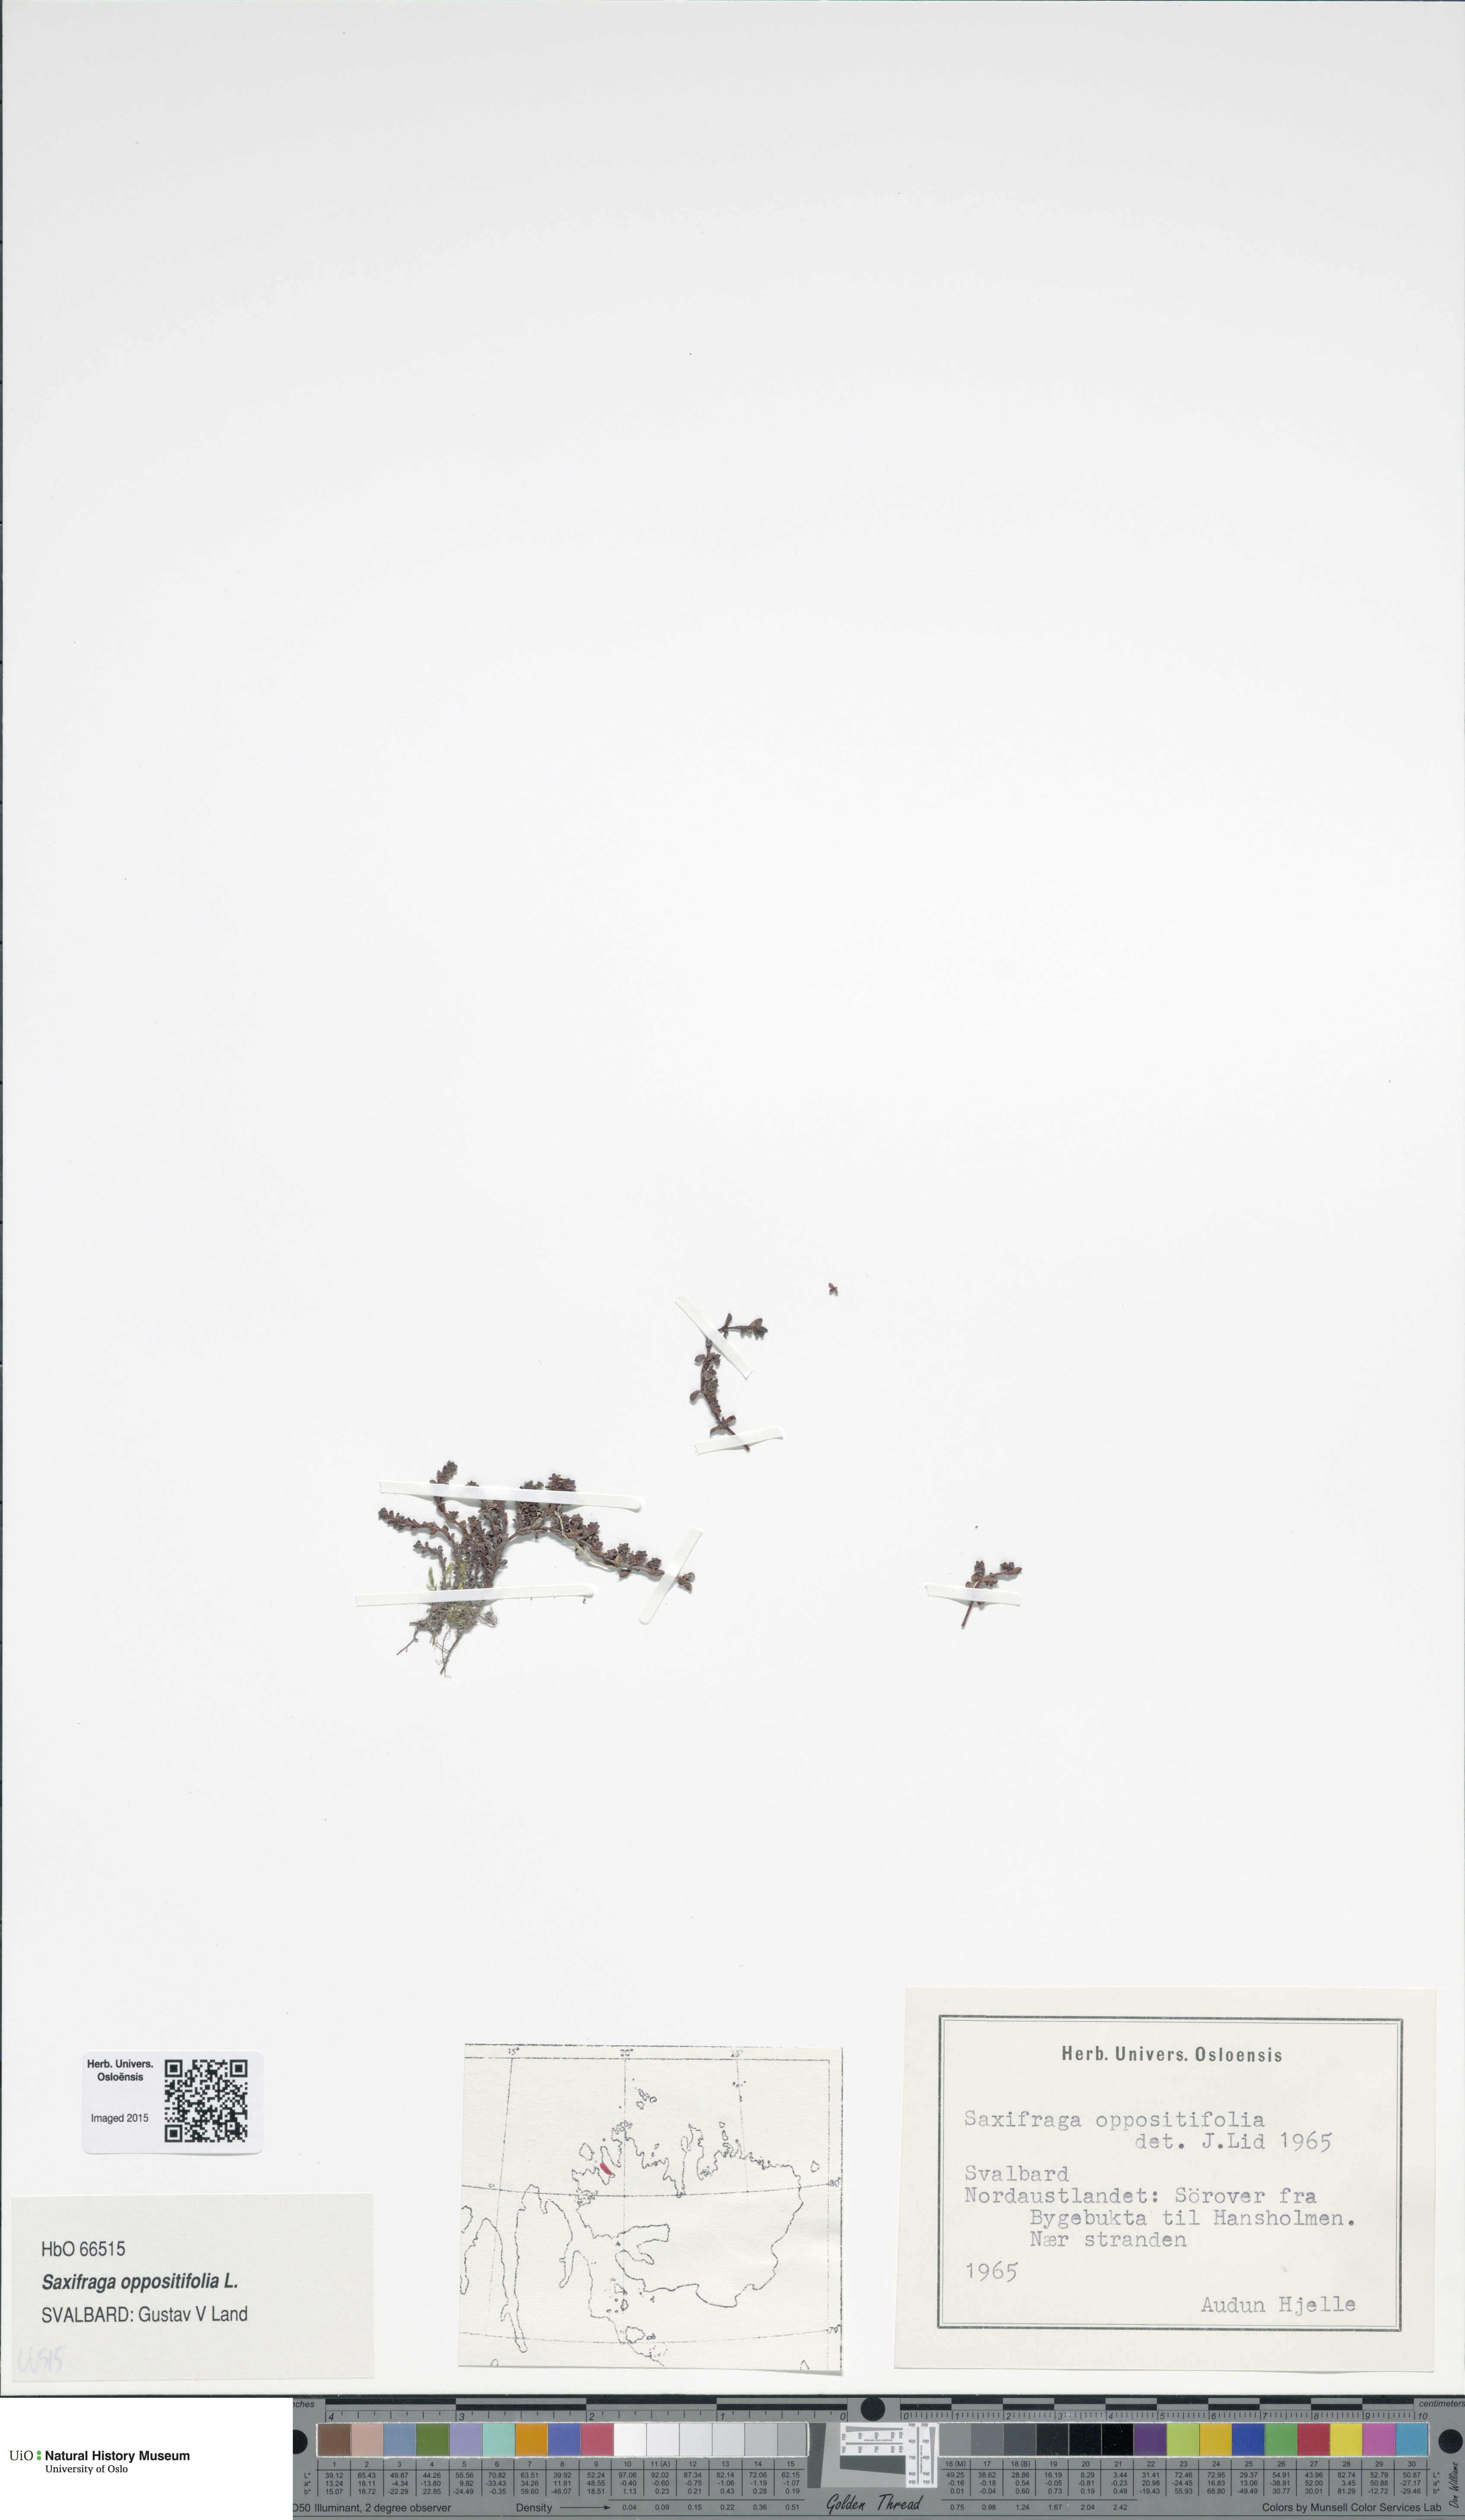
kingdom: Plantae
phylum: Tracheophyta
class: Magnoliopsida
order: Saxifragales
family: Saxifragaceae
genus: Saxifraga
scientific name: Saxifraga oppositifolia
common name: Purple saxifrage
